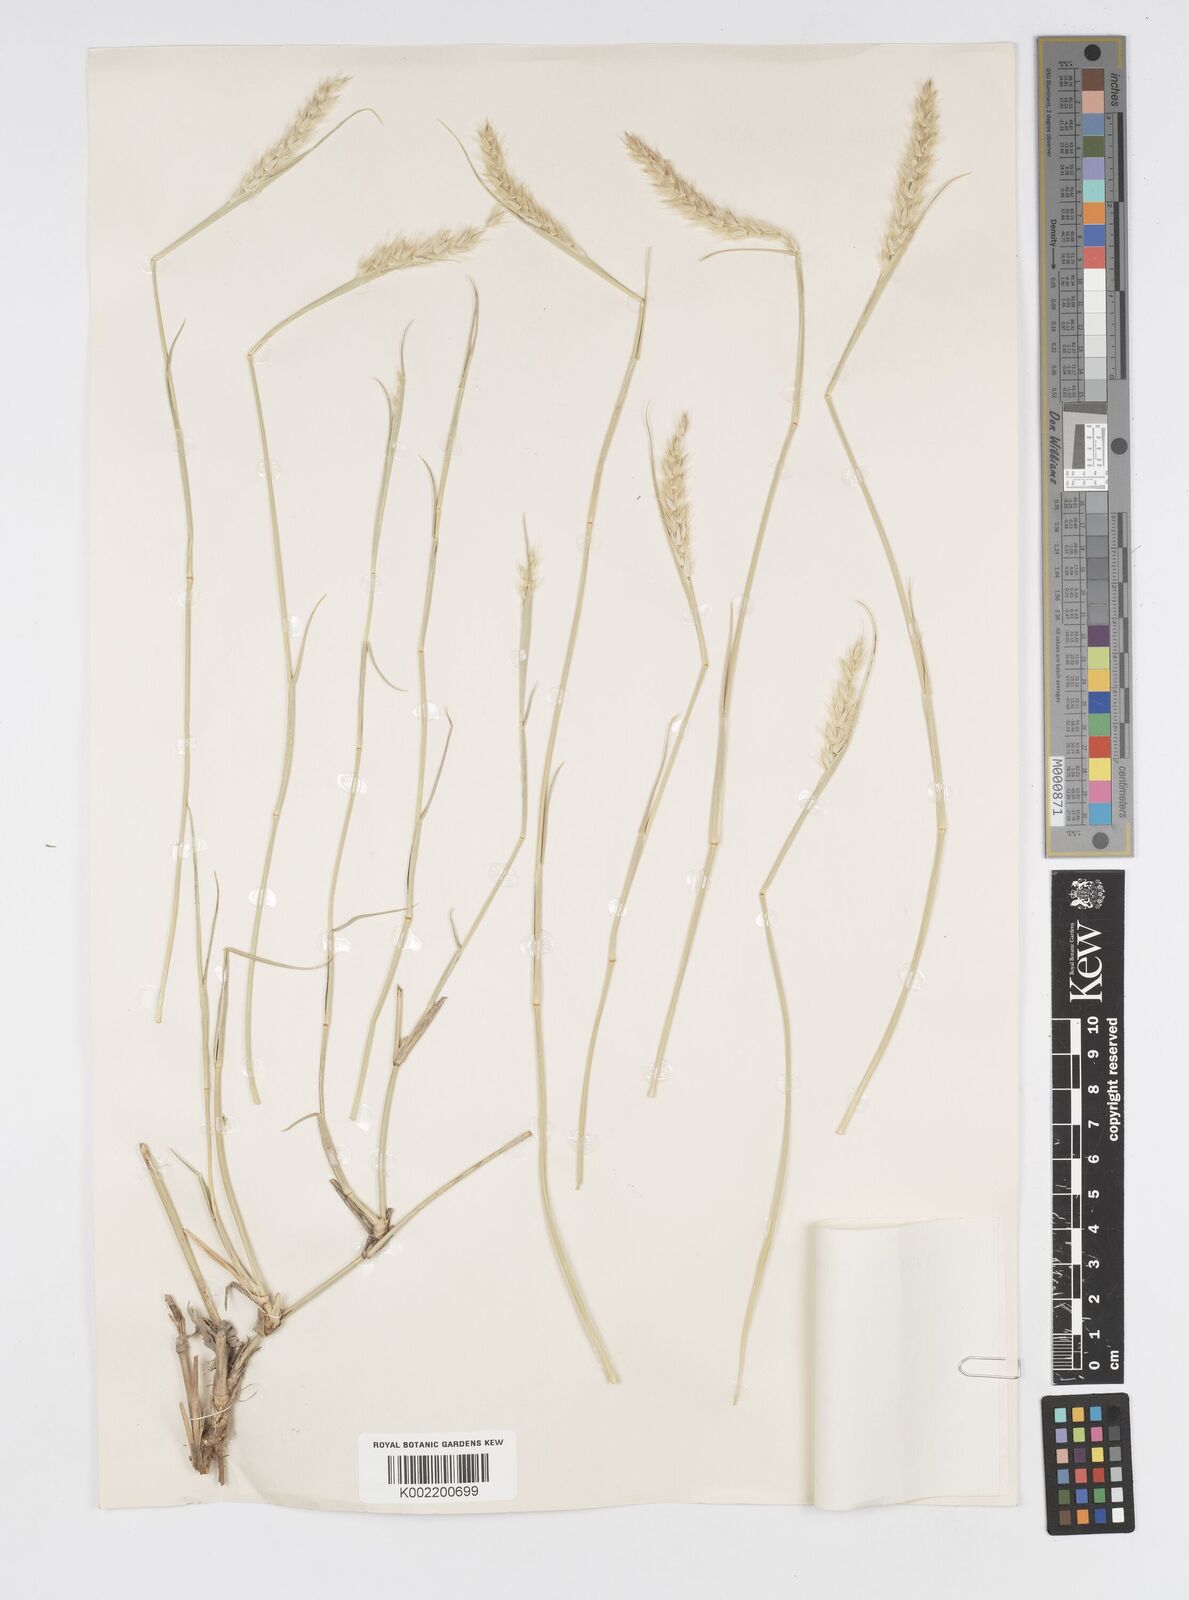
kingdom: Plantae
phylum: Tracheophyta
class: Liliopsida
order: Poales
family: Poaceae
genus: Cenchrus
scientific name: Cenchrus divisus
